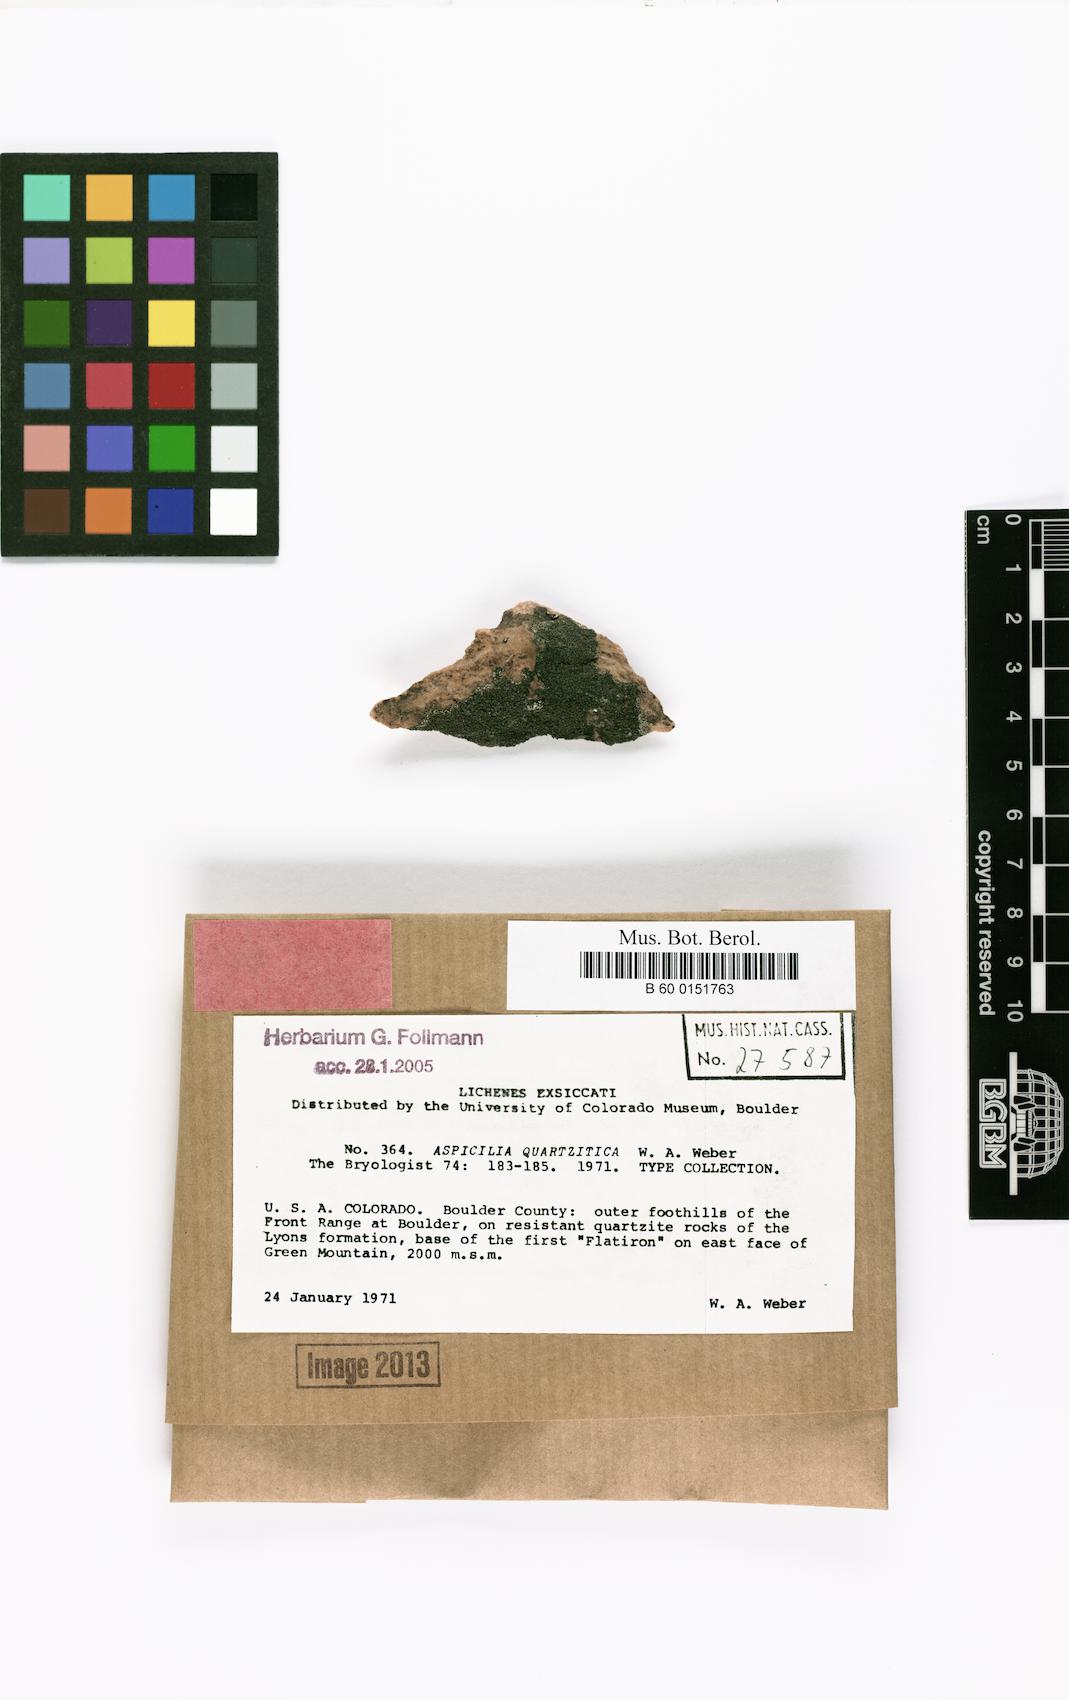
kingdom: Fungi
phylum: Ascomycota
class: Lecanoromycetes
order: Hymeneliales
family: Hymeneliaceae
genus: Aspicilia
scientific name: Aspicilia quartzitica
